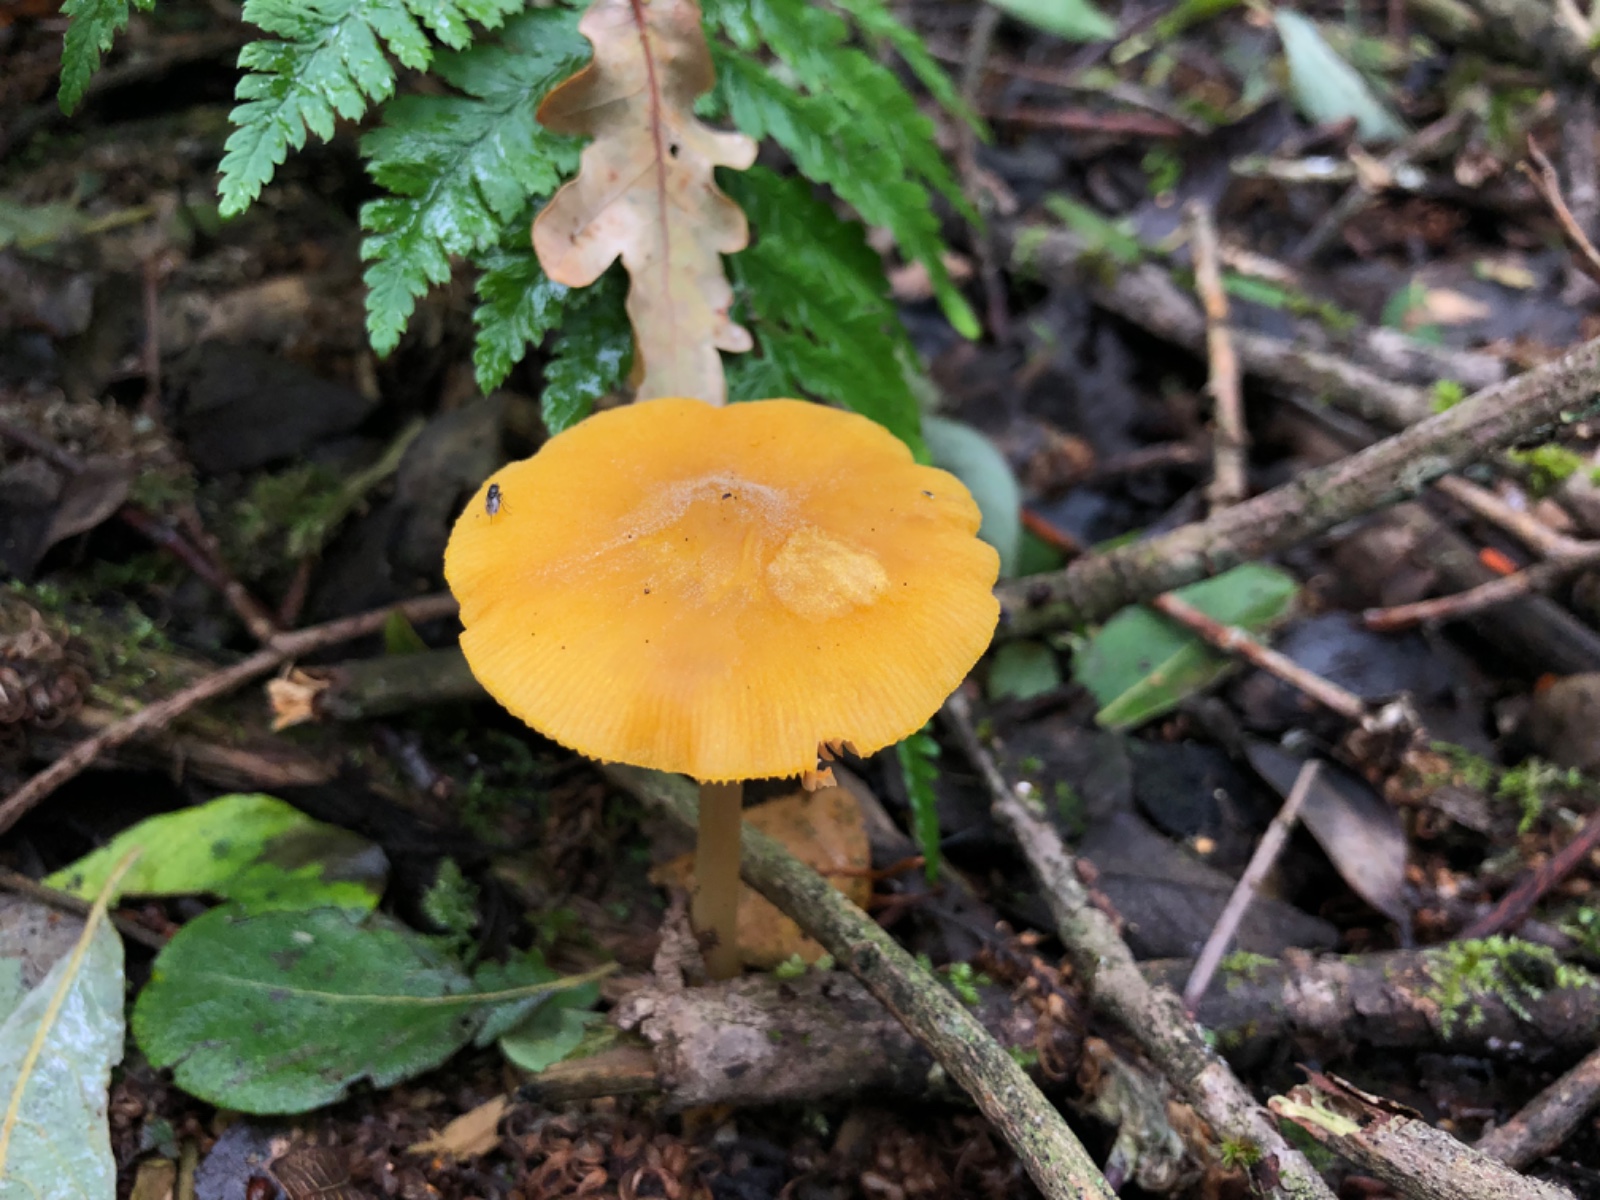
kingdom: Fungi
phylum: Basidiomycota
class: Agaricomycetes
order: Agaricales
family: Pluteaceae
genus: Pluteus
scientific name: Pluteus leoninus
